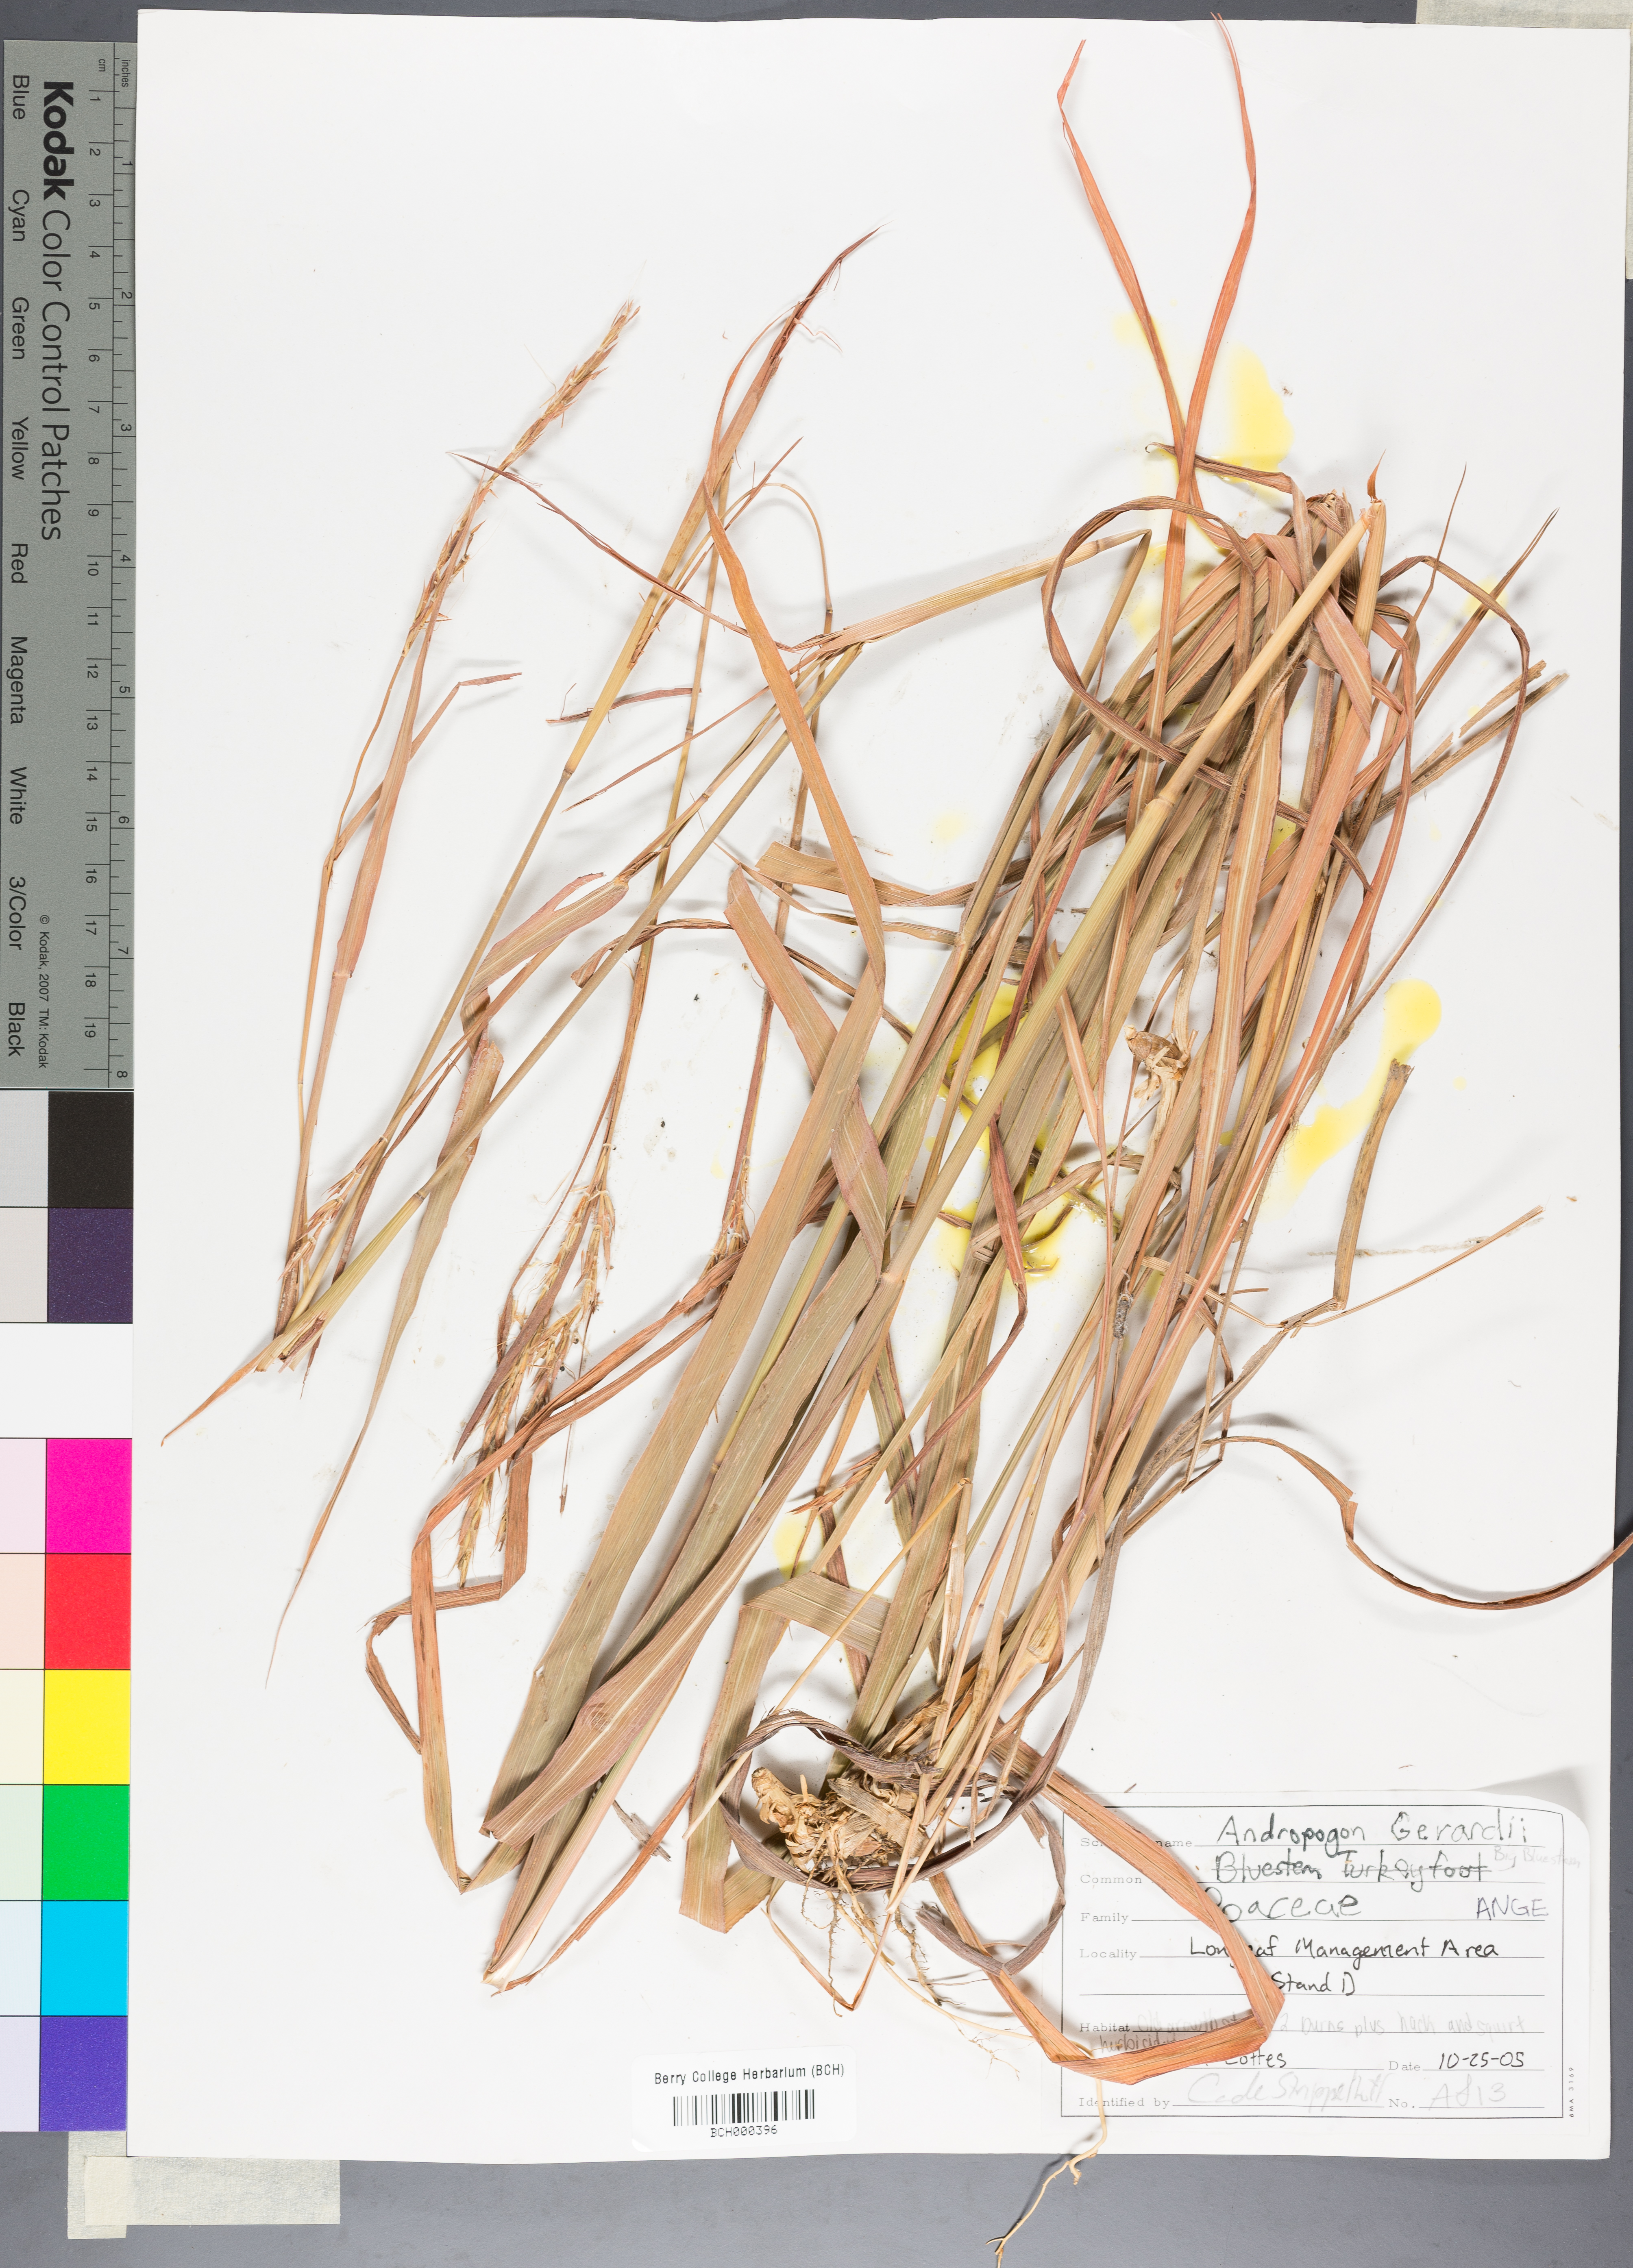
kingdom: Plantae
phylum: Tracheophyta
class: Liliopsida
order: Poales
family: Poaceae
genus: Andropogon
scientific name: Andropogon gerardi
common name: Big bluestem
